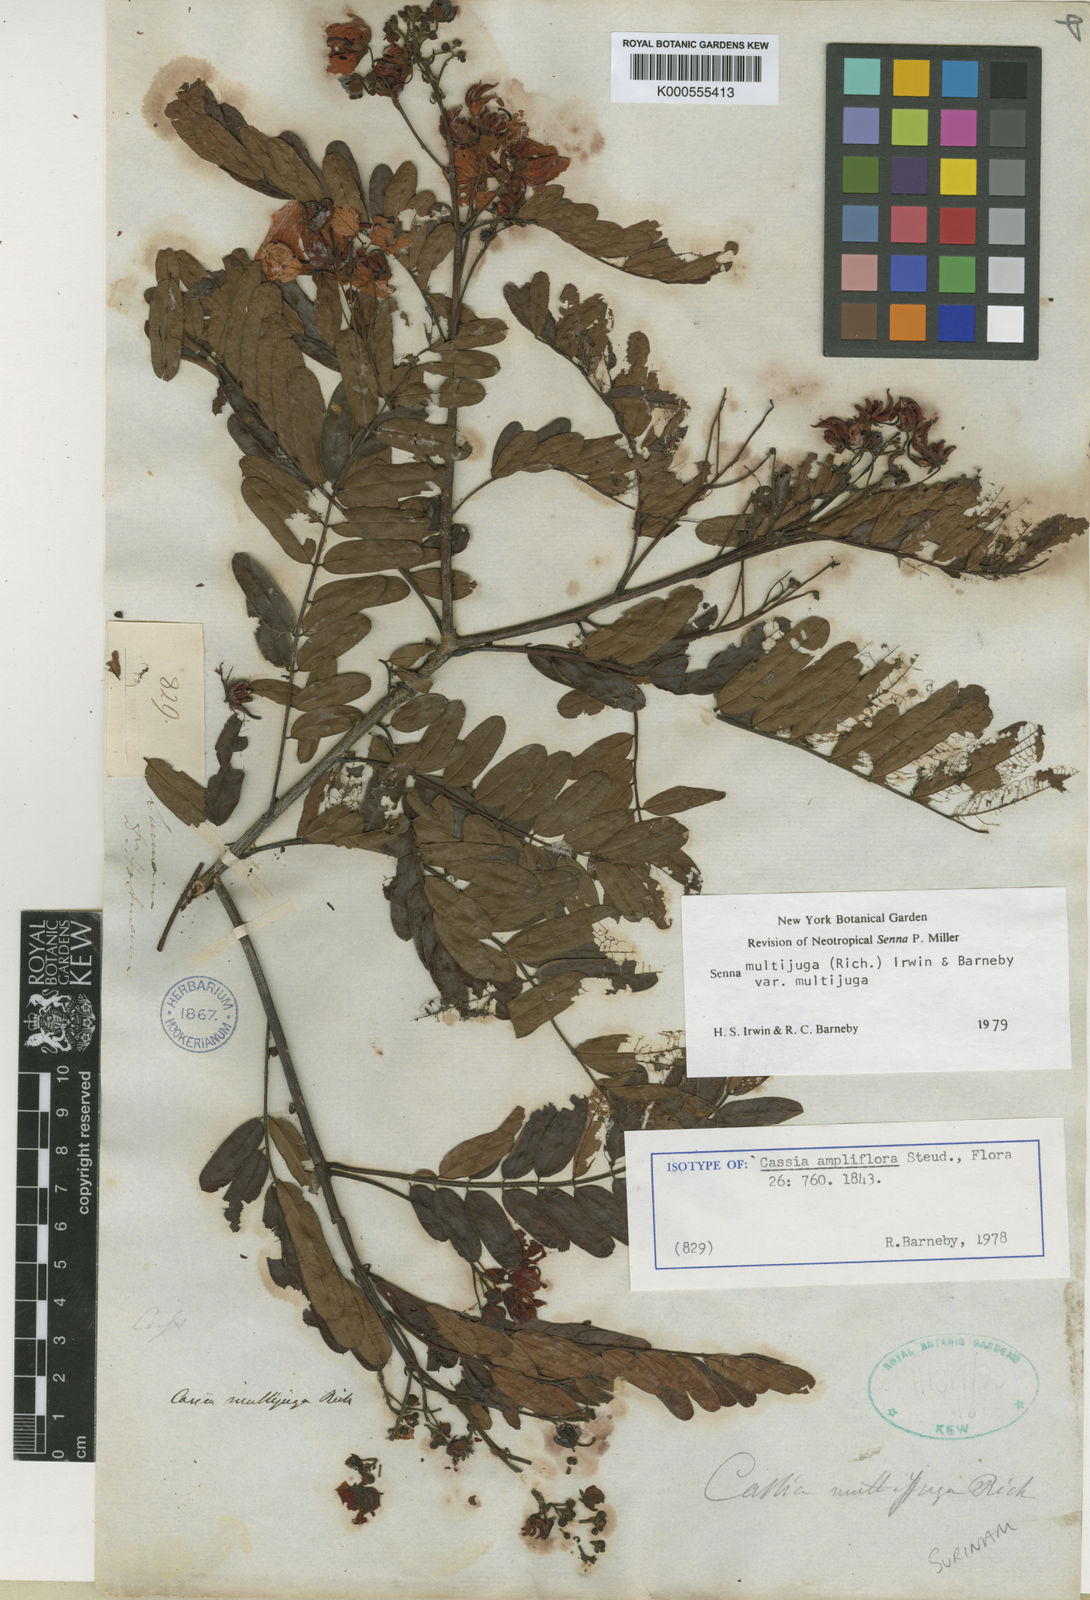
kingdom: Plantae
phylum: Tracheophyta
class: Magnoliopsida
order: Fabales
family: Fabaceae
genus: Senna
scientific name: Senna multijuga
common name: False sicklepod
